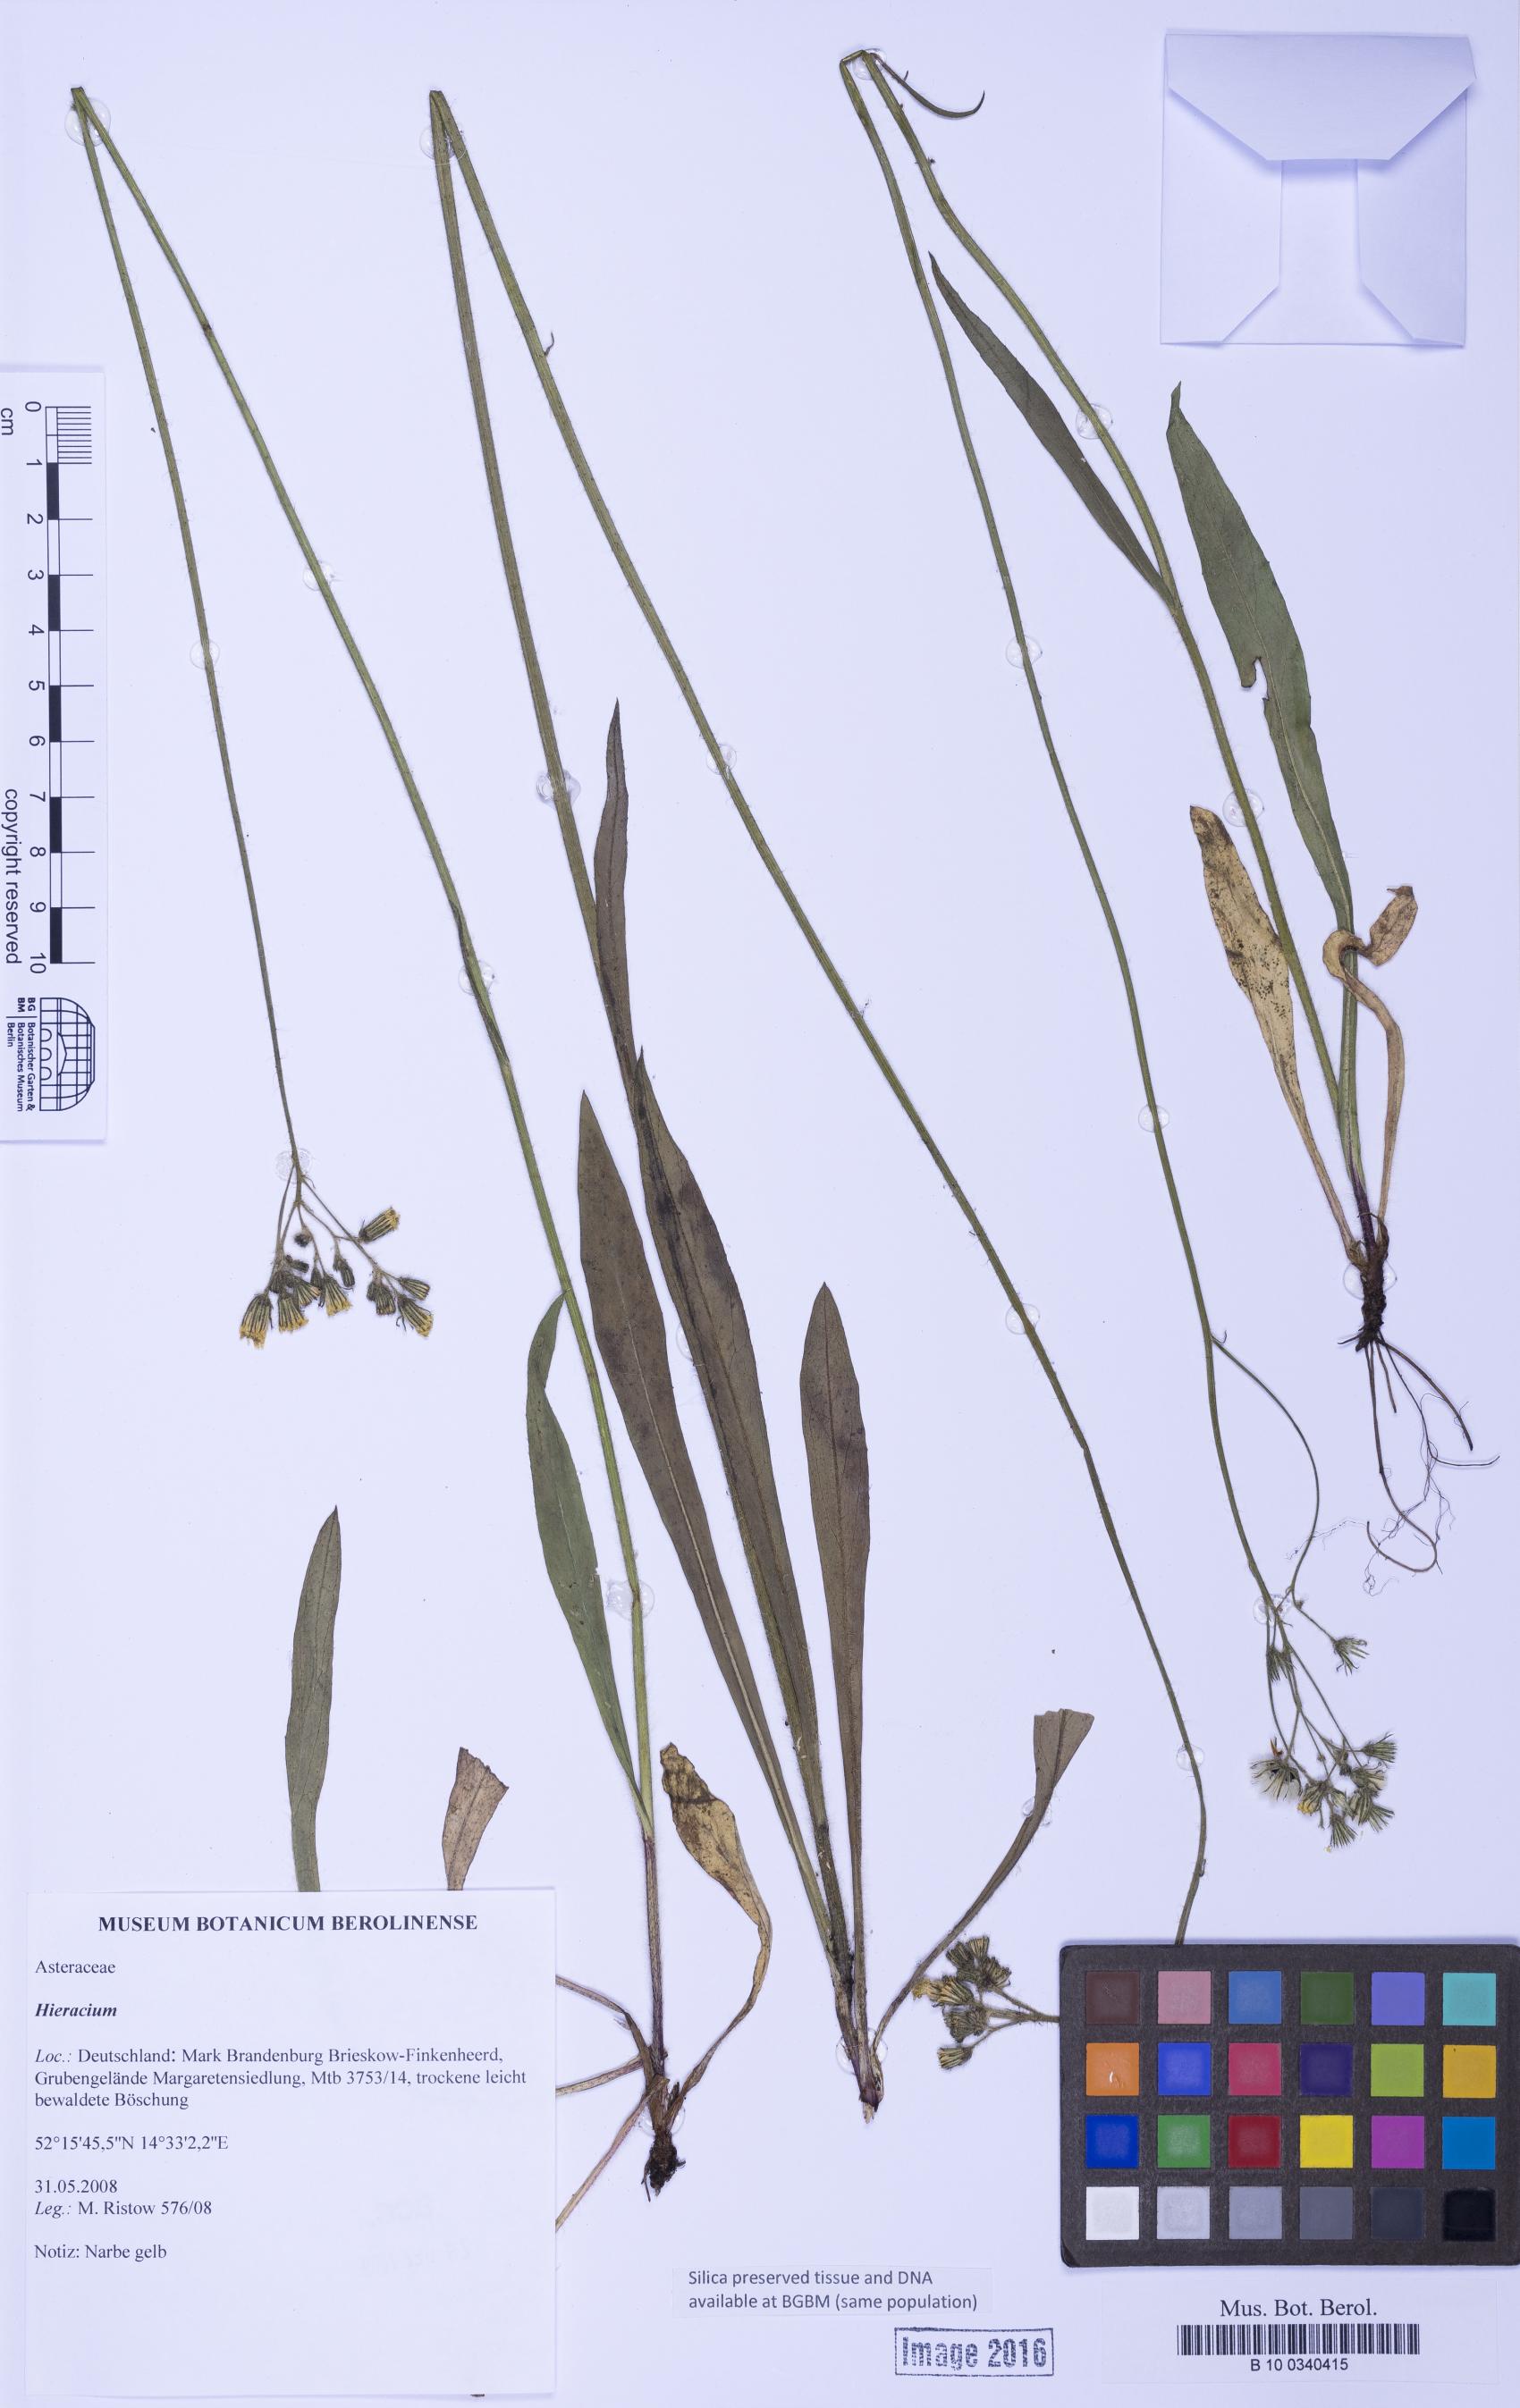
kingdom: Plantae
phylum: Tracheophyta
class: Magnoliopsida
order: Asterales
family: Asteraceae
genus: Hieracium
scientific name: Hieracium
